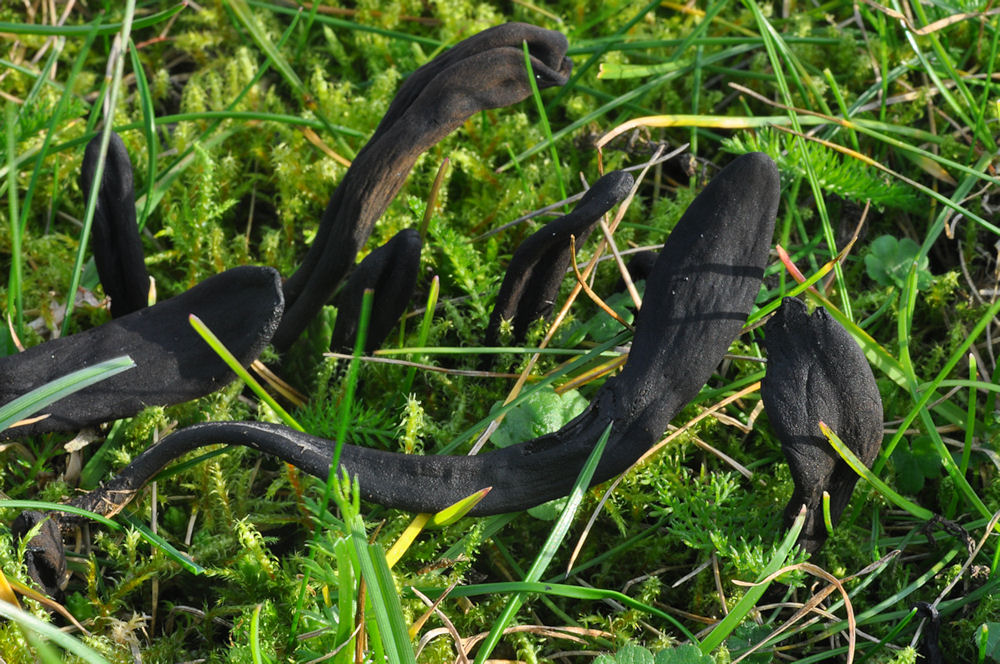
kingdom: Fungi
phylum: Ascomycota
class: Geoglossomycetes
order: Geoglossales
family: Geoglossaceae
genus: Geoglossum
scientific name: Geoglossum cookeianum
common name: bred jordtunge
